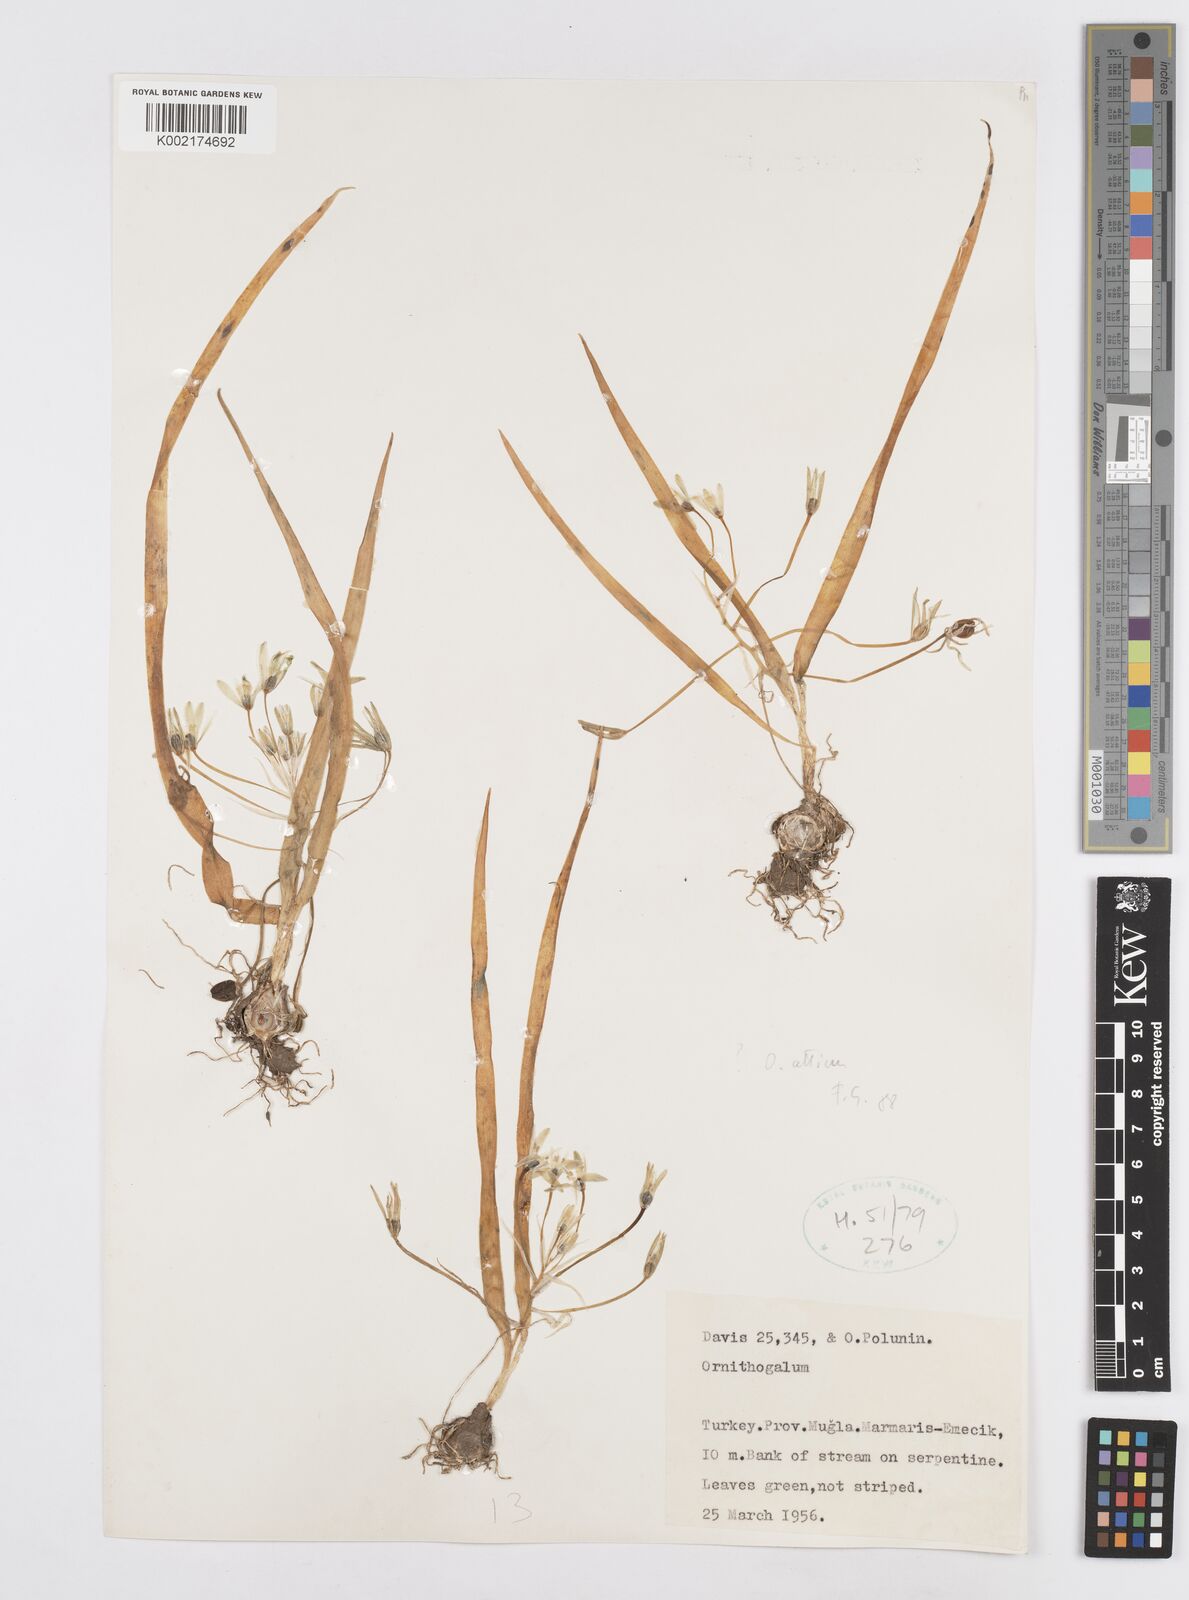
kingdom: Plantae
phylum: Tracheophyta
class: Liliopsida
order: Asparagales
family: Asparagaceae
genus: Ornithogalum
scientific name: Ornithogalum atticum
